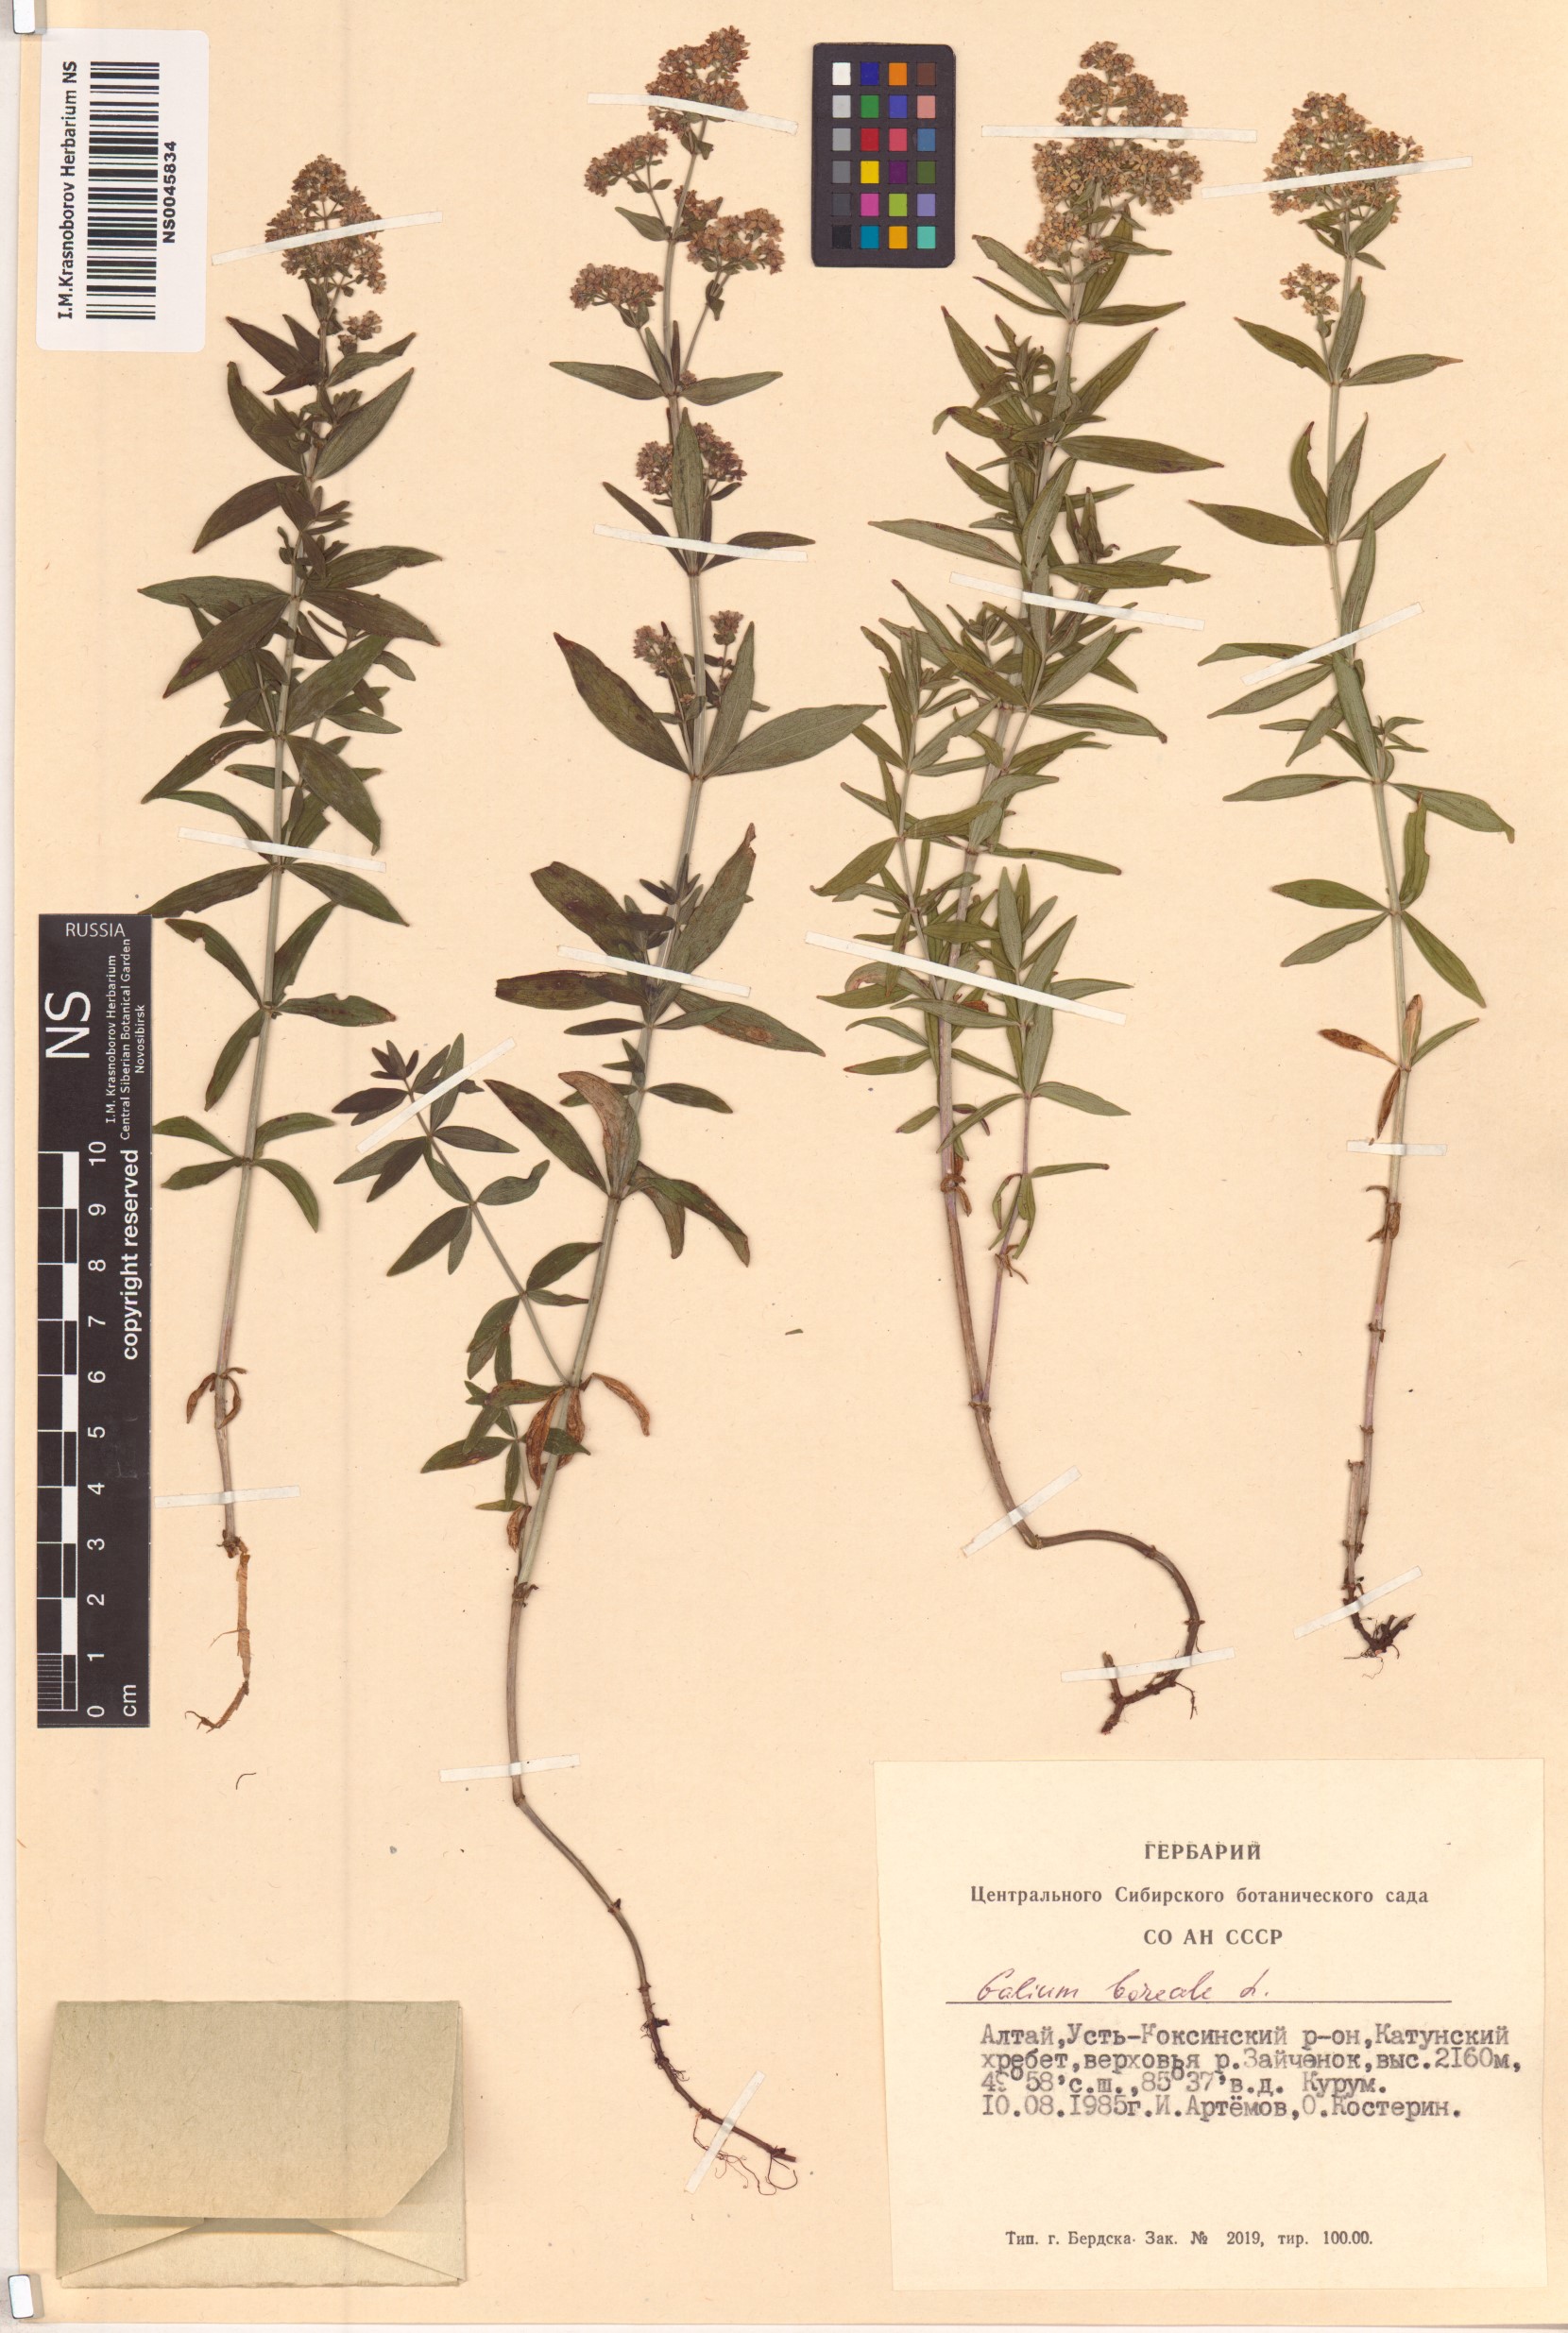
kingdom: Plantae
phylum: Tracheophyta
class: Magnoliopsida
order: Gentianales
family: Rubiaceae
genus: Galium
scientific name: Galium boreale
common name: Northern bedstraw
